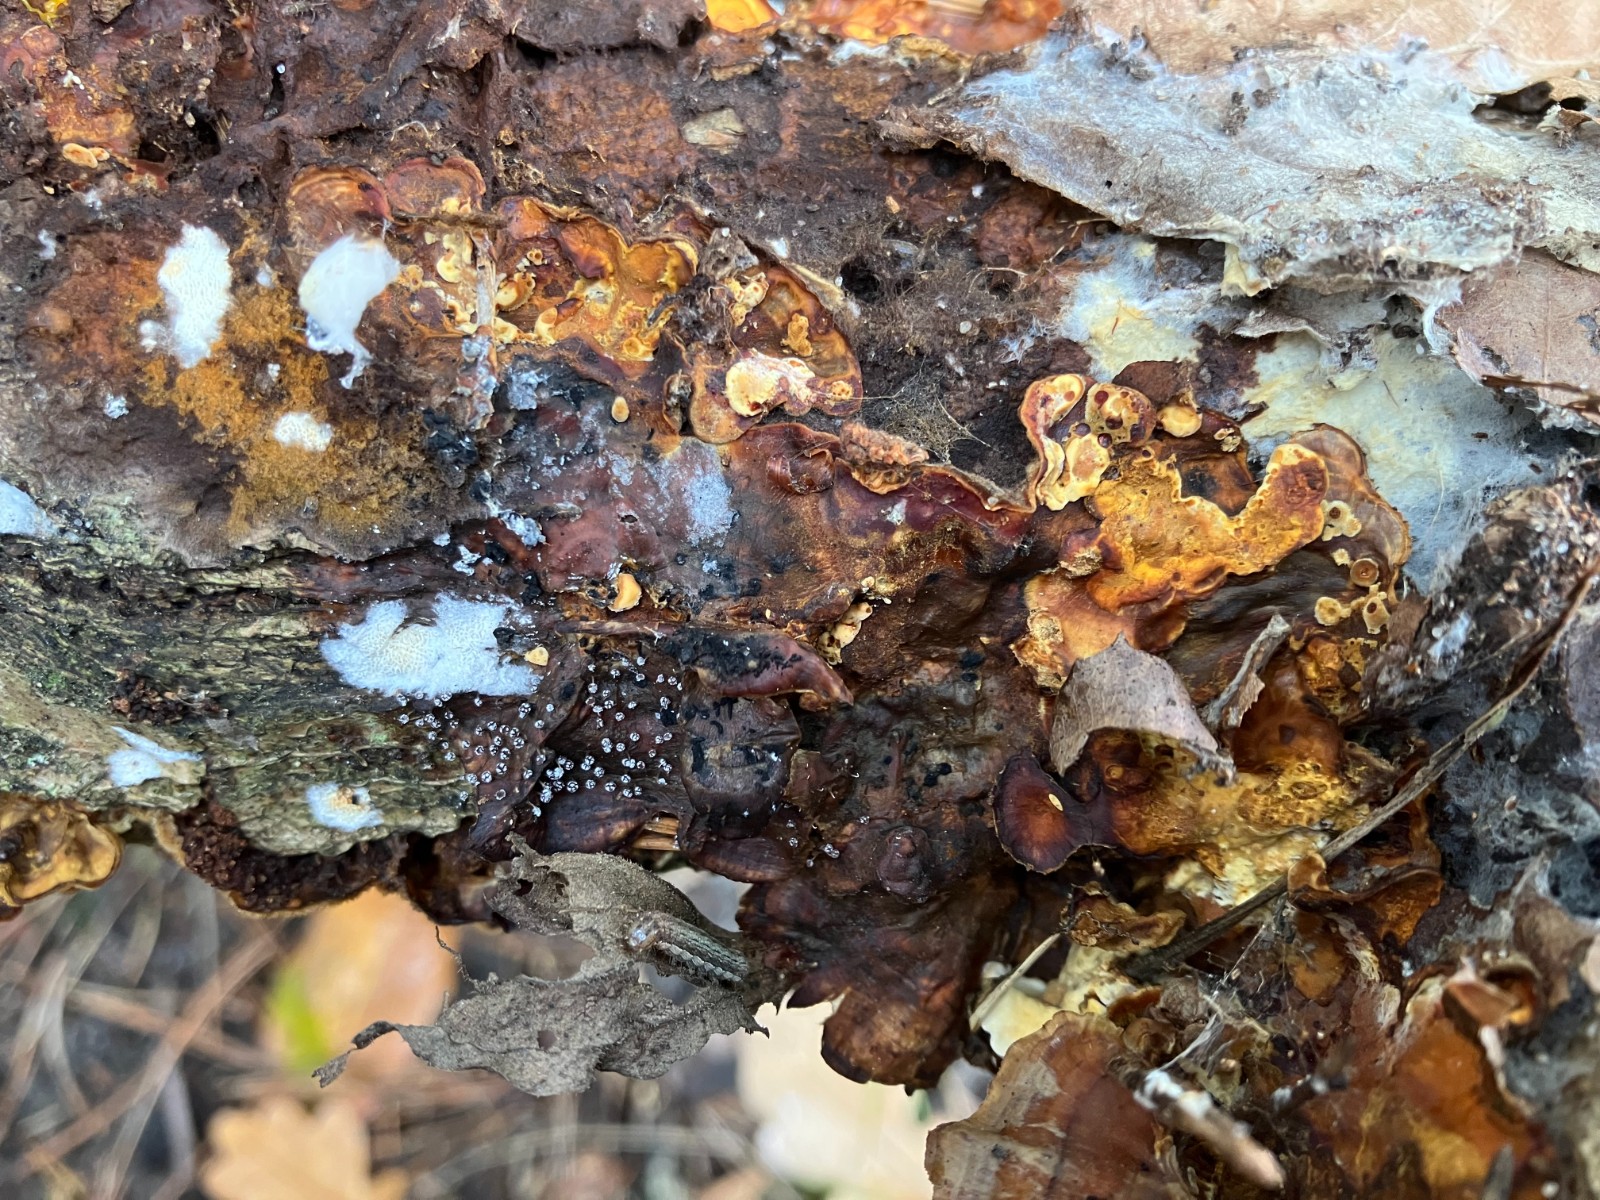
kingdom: Protozoa
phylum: Mycetozoa
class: Myxomycetes
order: Physarales
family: Physaraceae
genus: Physarum
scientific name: Physarum album
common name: nikkende støvknop
